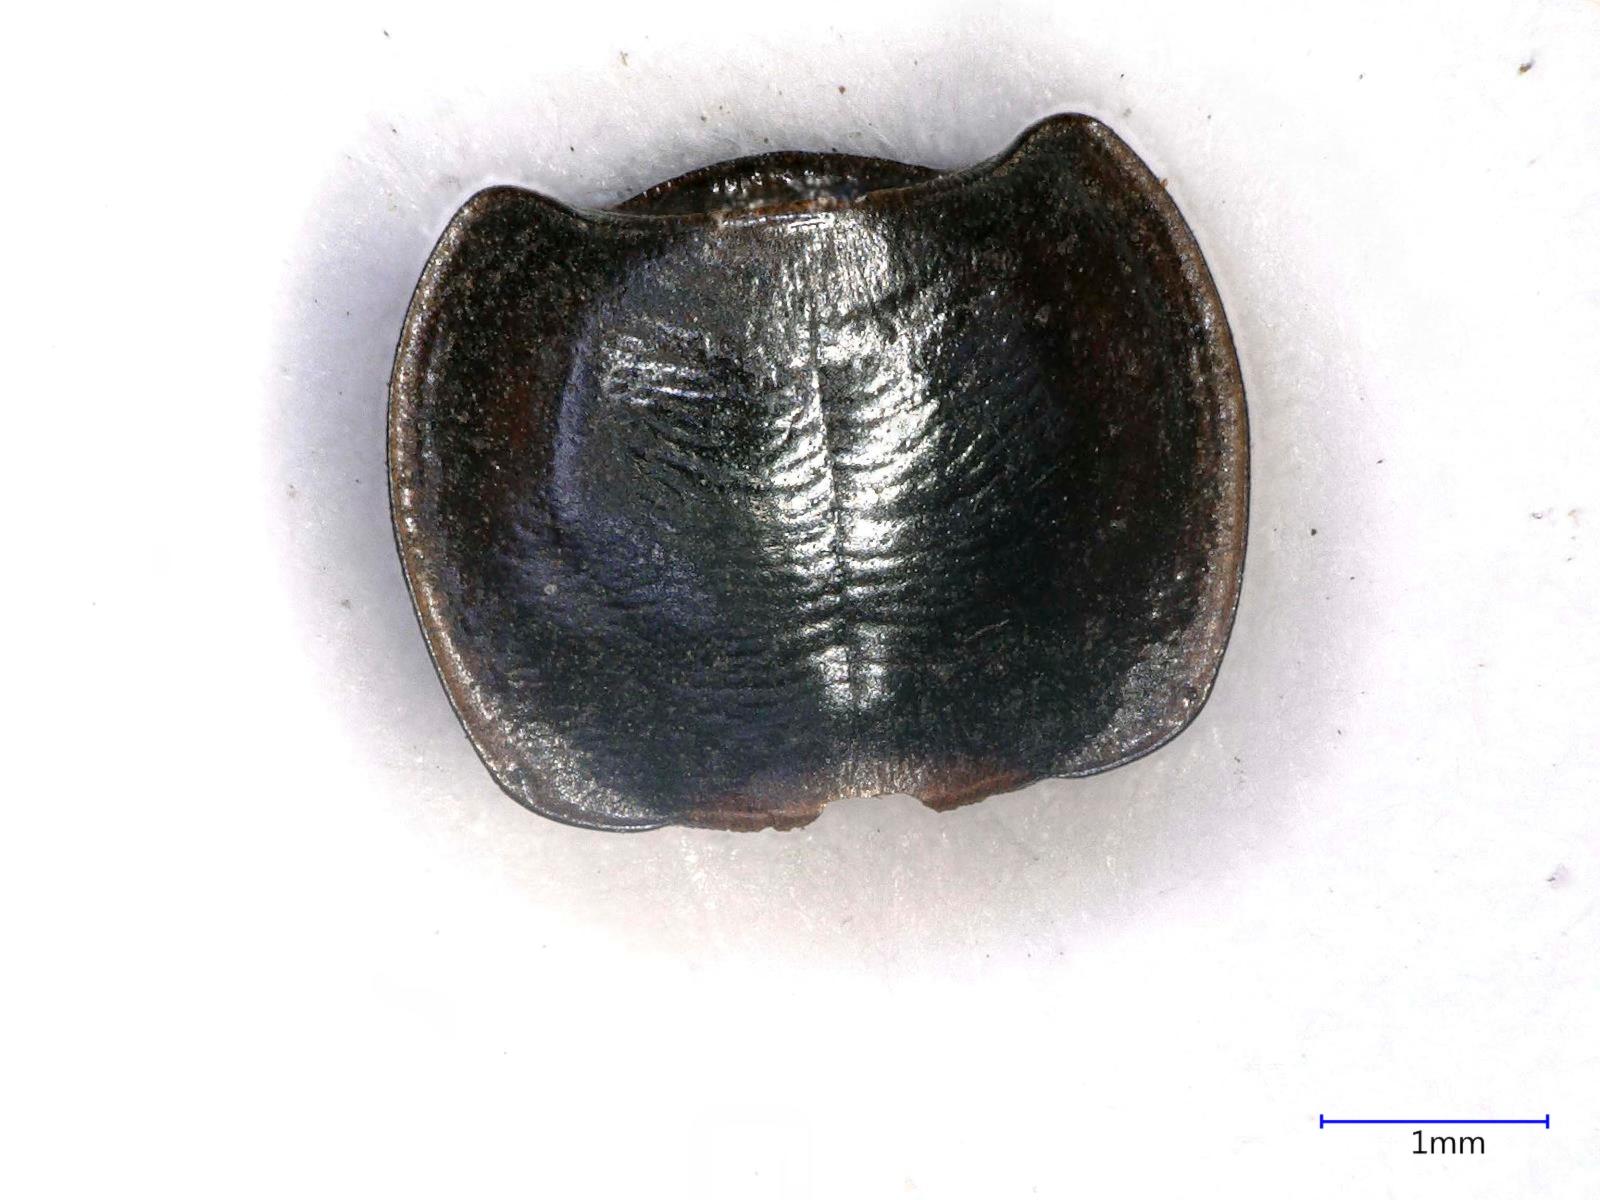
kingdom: Animalia
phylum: Arthropoda
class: Insecta
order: Coleoptera
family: Carabidae
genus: Tanystoma
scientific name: Tanystoma maculicolle
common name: Tule beetle
